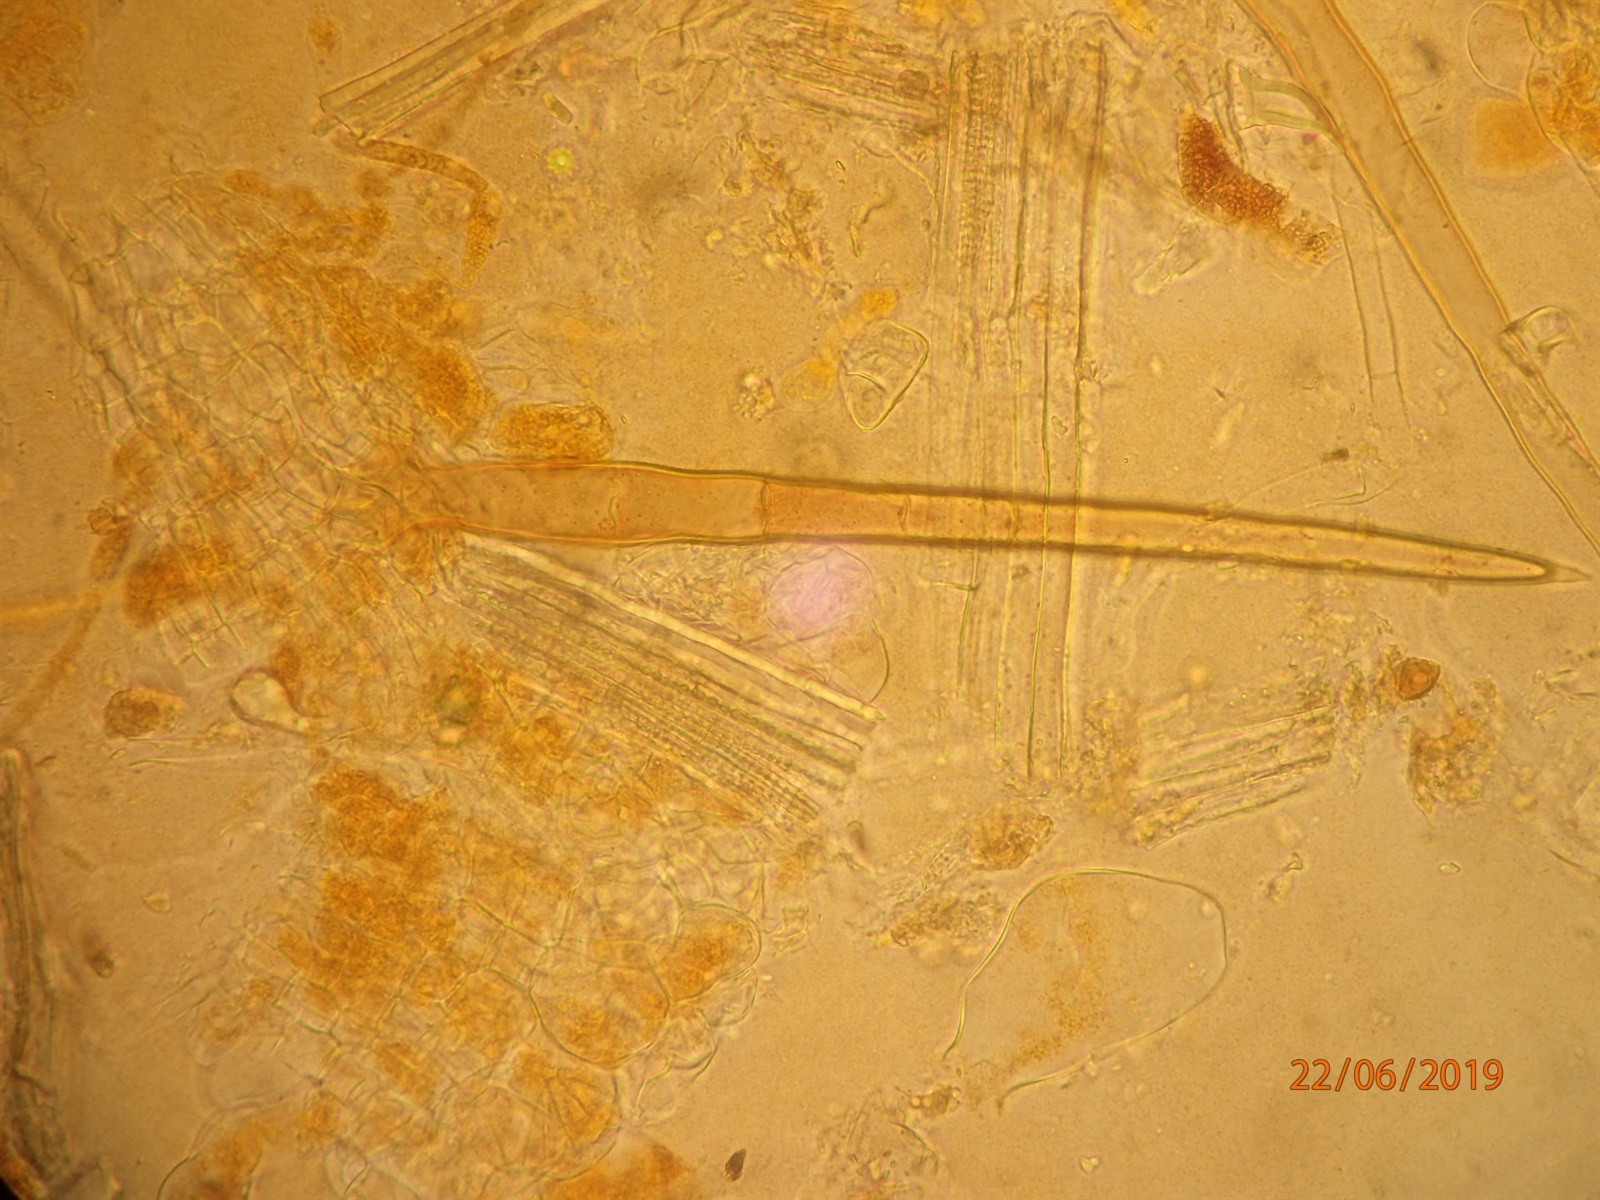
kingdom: Fungi
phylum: Ascomycota
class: Pezizomycetes
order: Pezizales
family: Pyronemataceae
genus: Cheilymenia
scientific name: Cheilymenia stercorea
